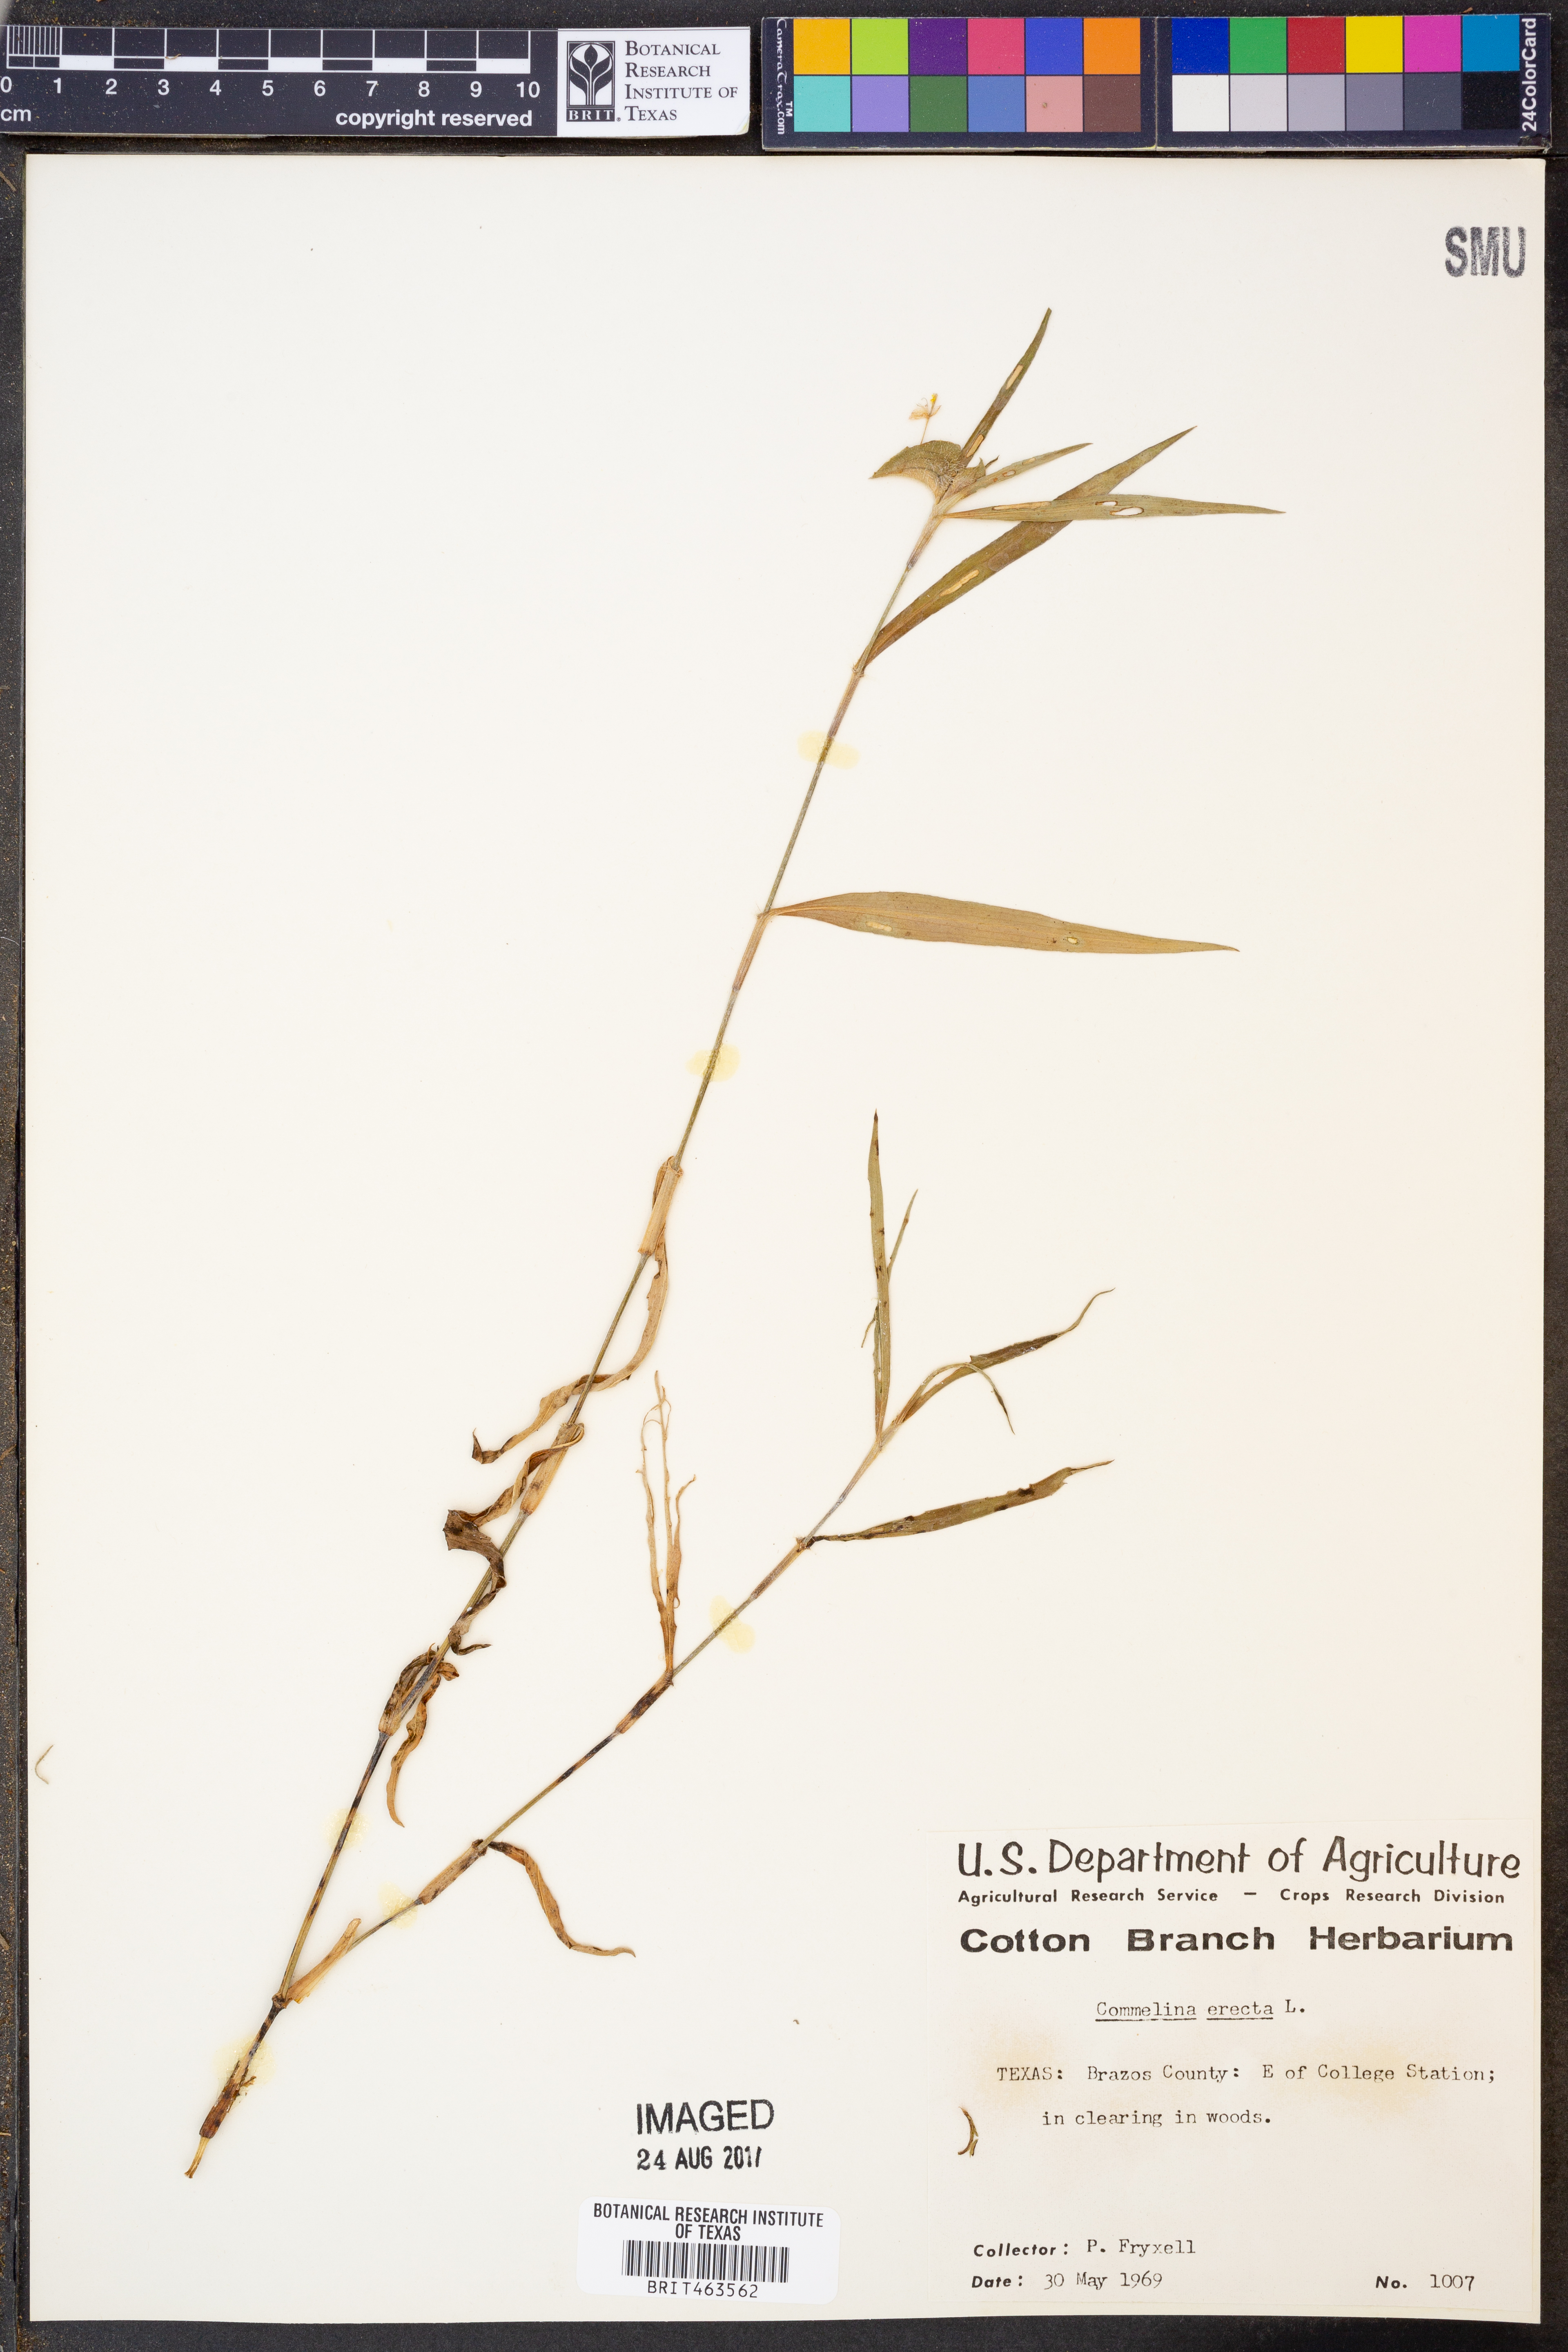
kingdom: Plantae
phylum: Tracheophyta
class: Liliopsida
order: Commelinales
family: Commelinaceae
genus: Commelina
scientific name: Commelina erecta
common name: Blousel blommetjie
